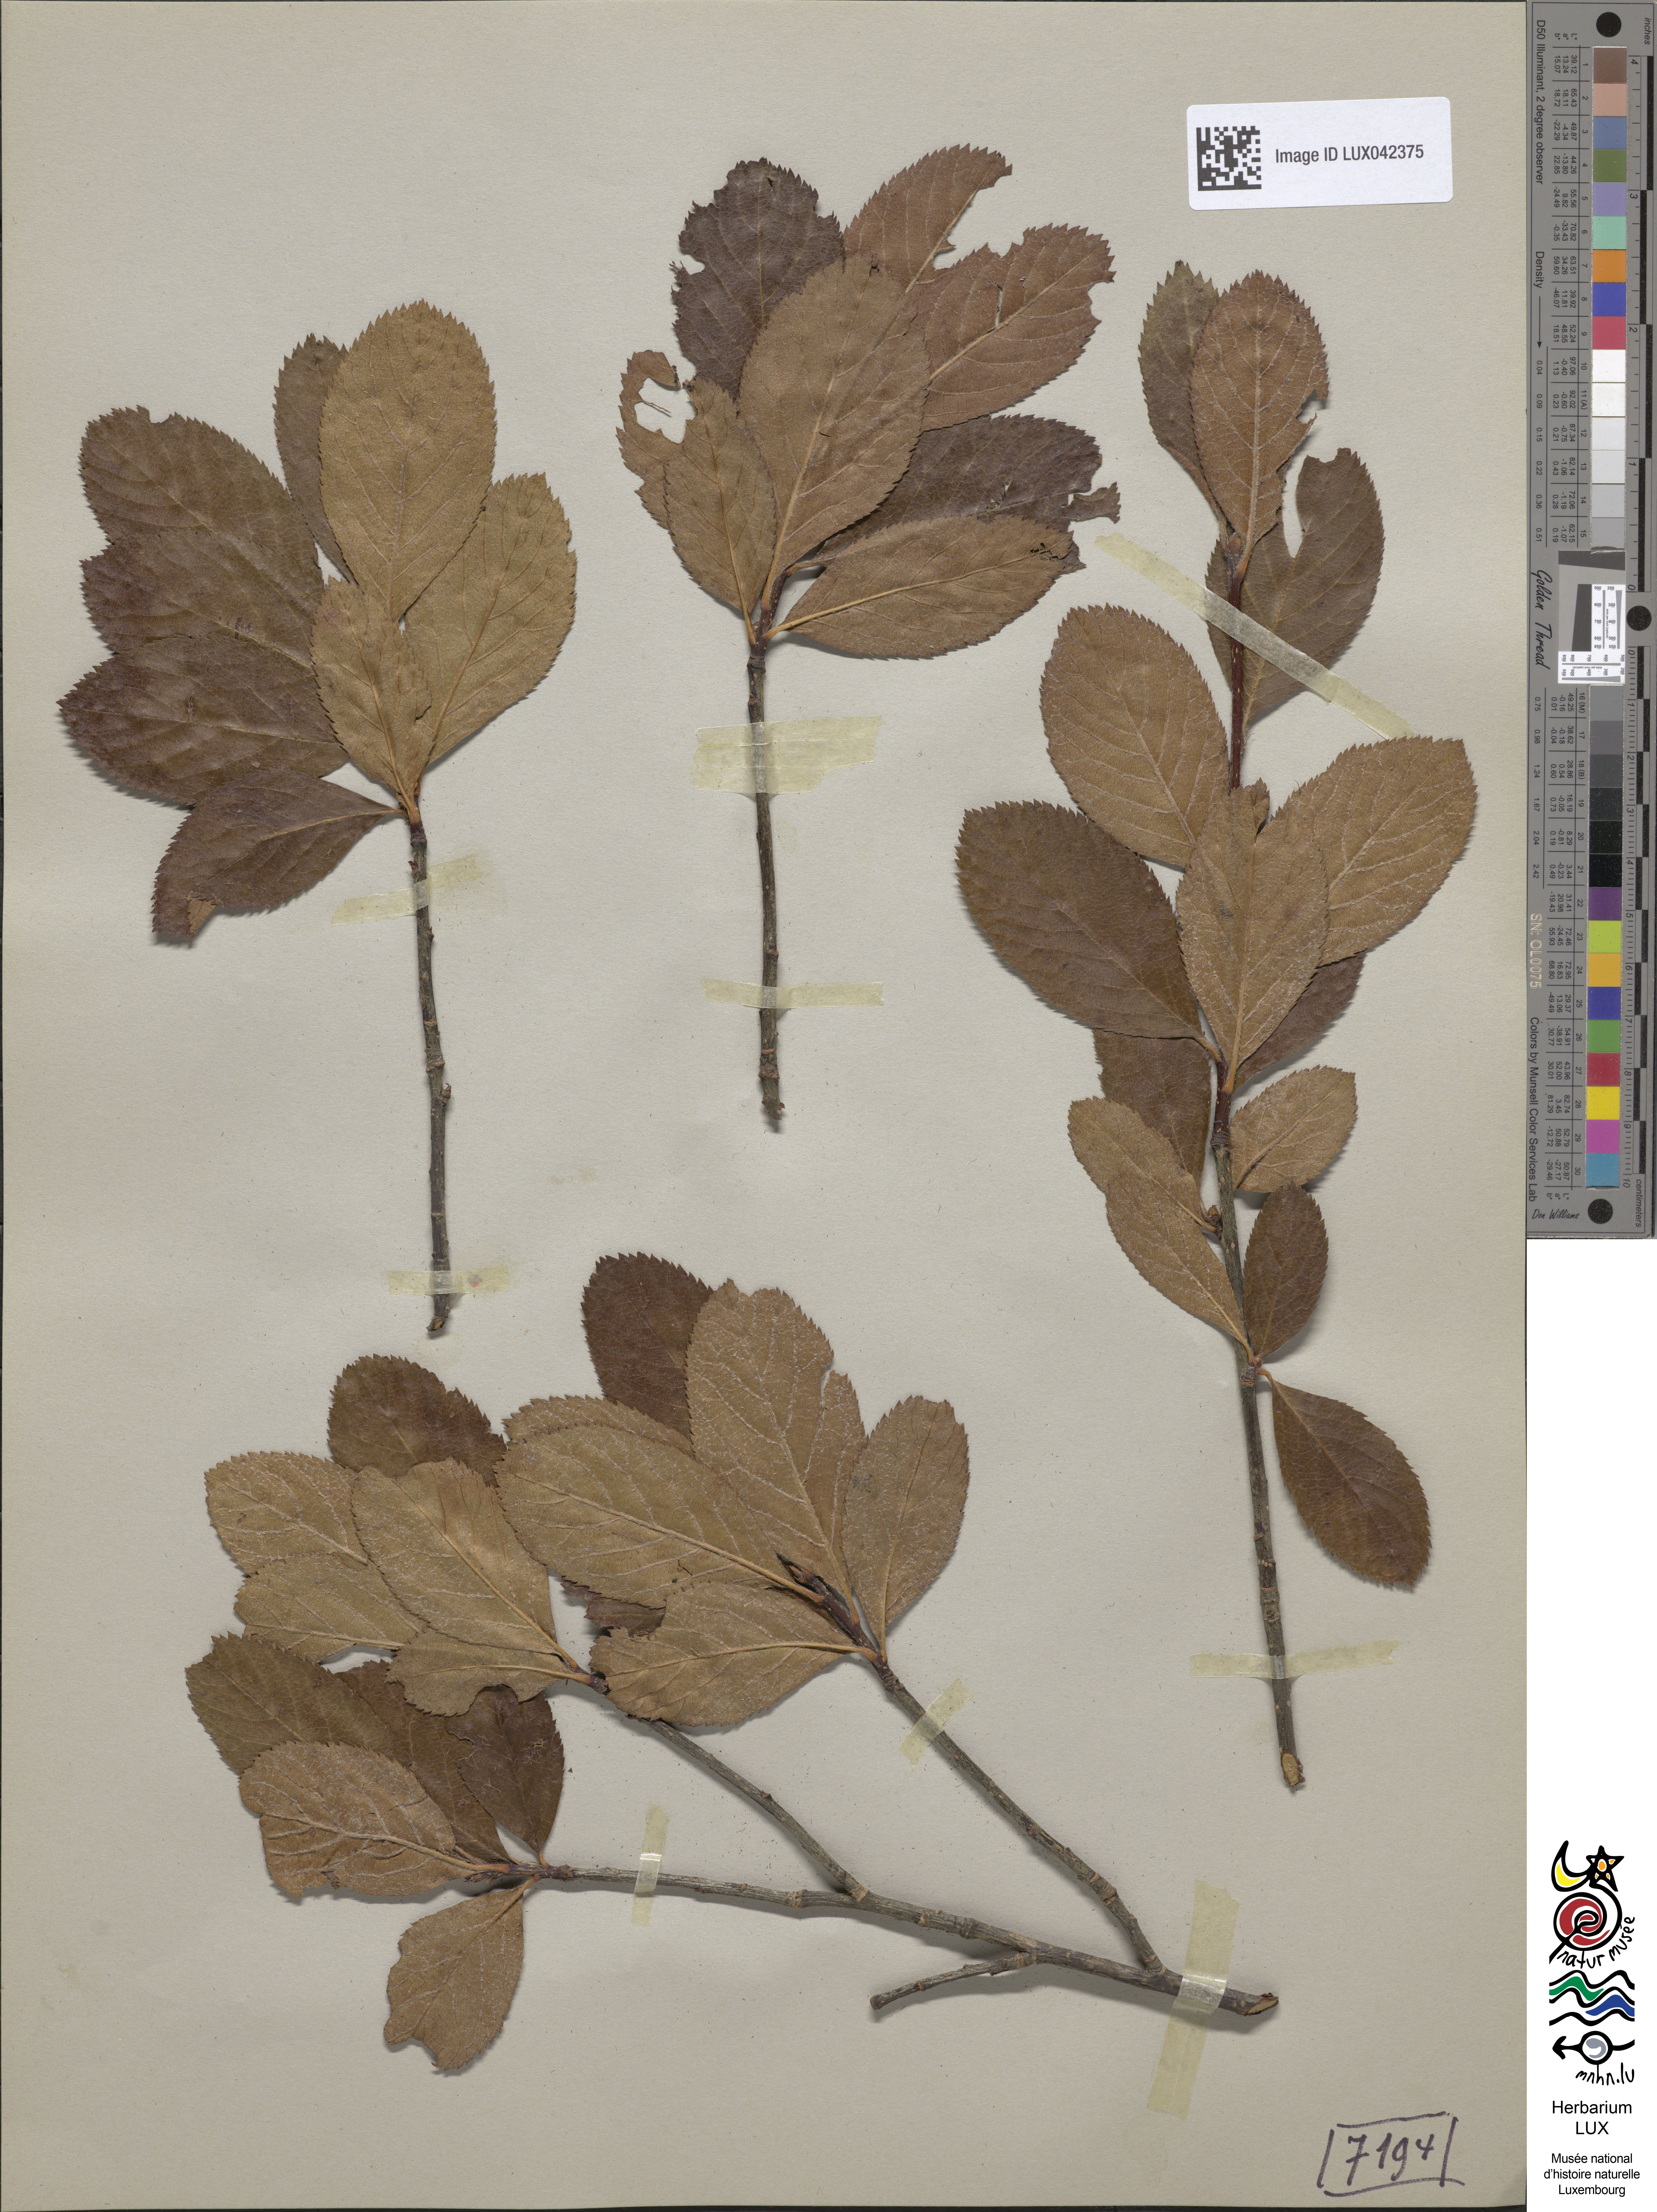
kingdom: Plantae
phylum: Tracheophyta
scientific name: Tracheophyta
